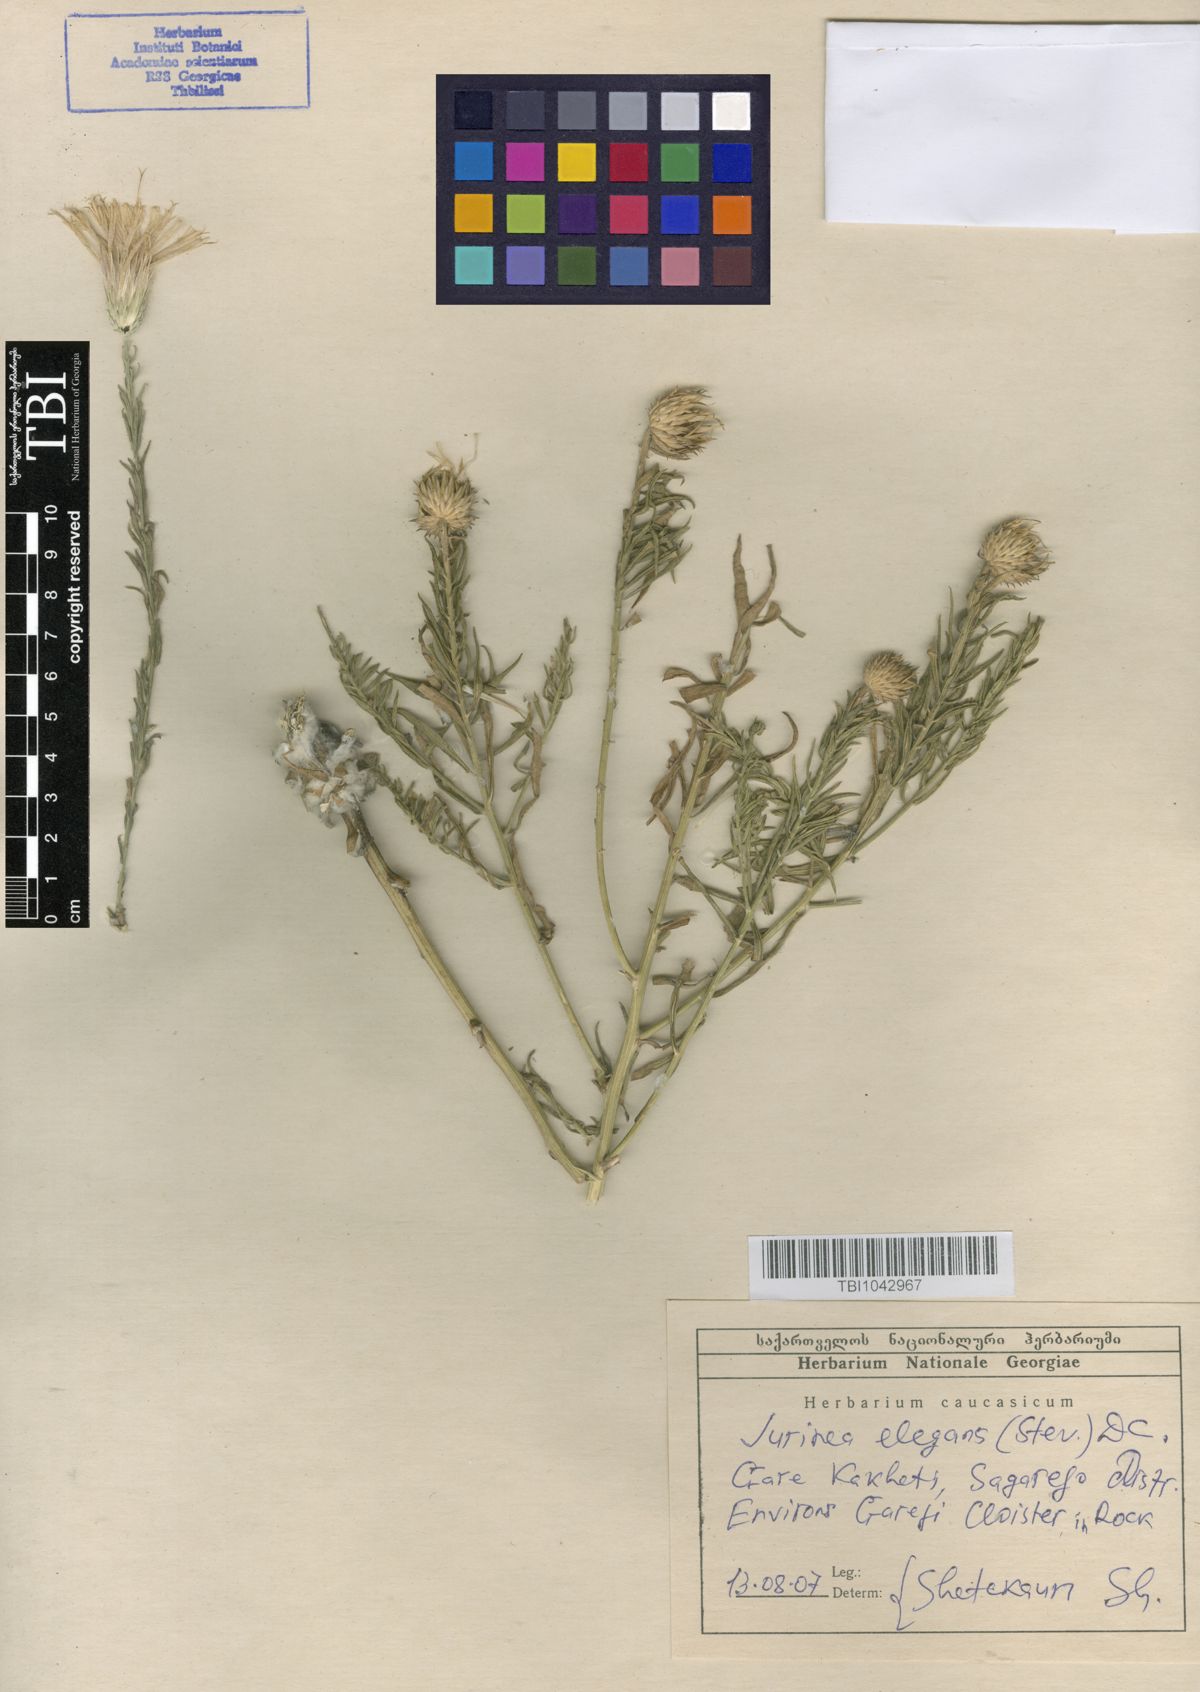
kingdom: Plantae
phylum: Tracheophyta
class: Magnoliopsida
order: Asterales
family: Asteraceae
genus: Jurinea
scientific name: Jurinea elegans
